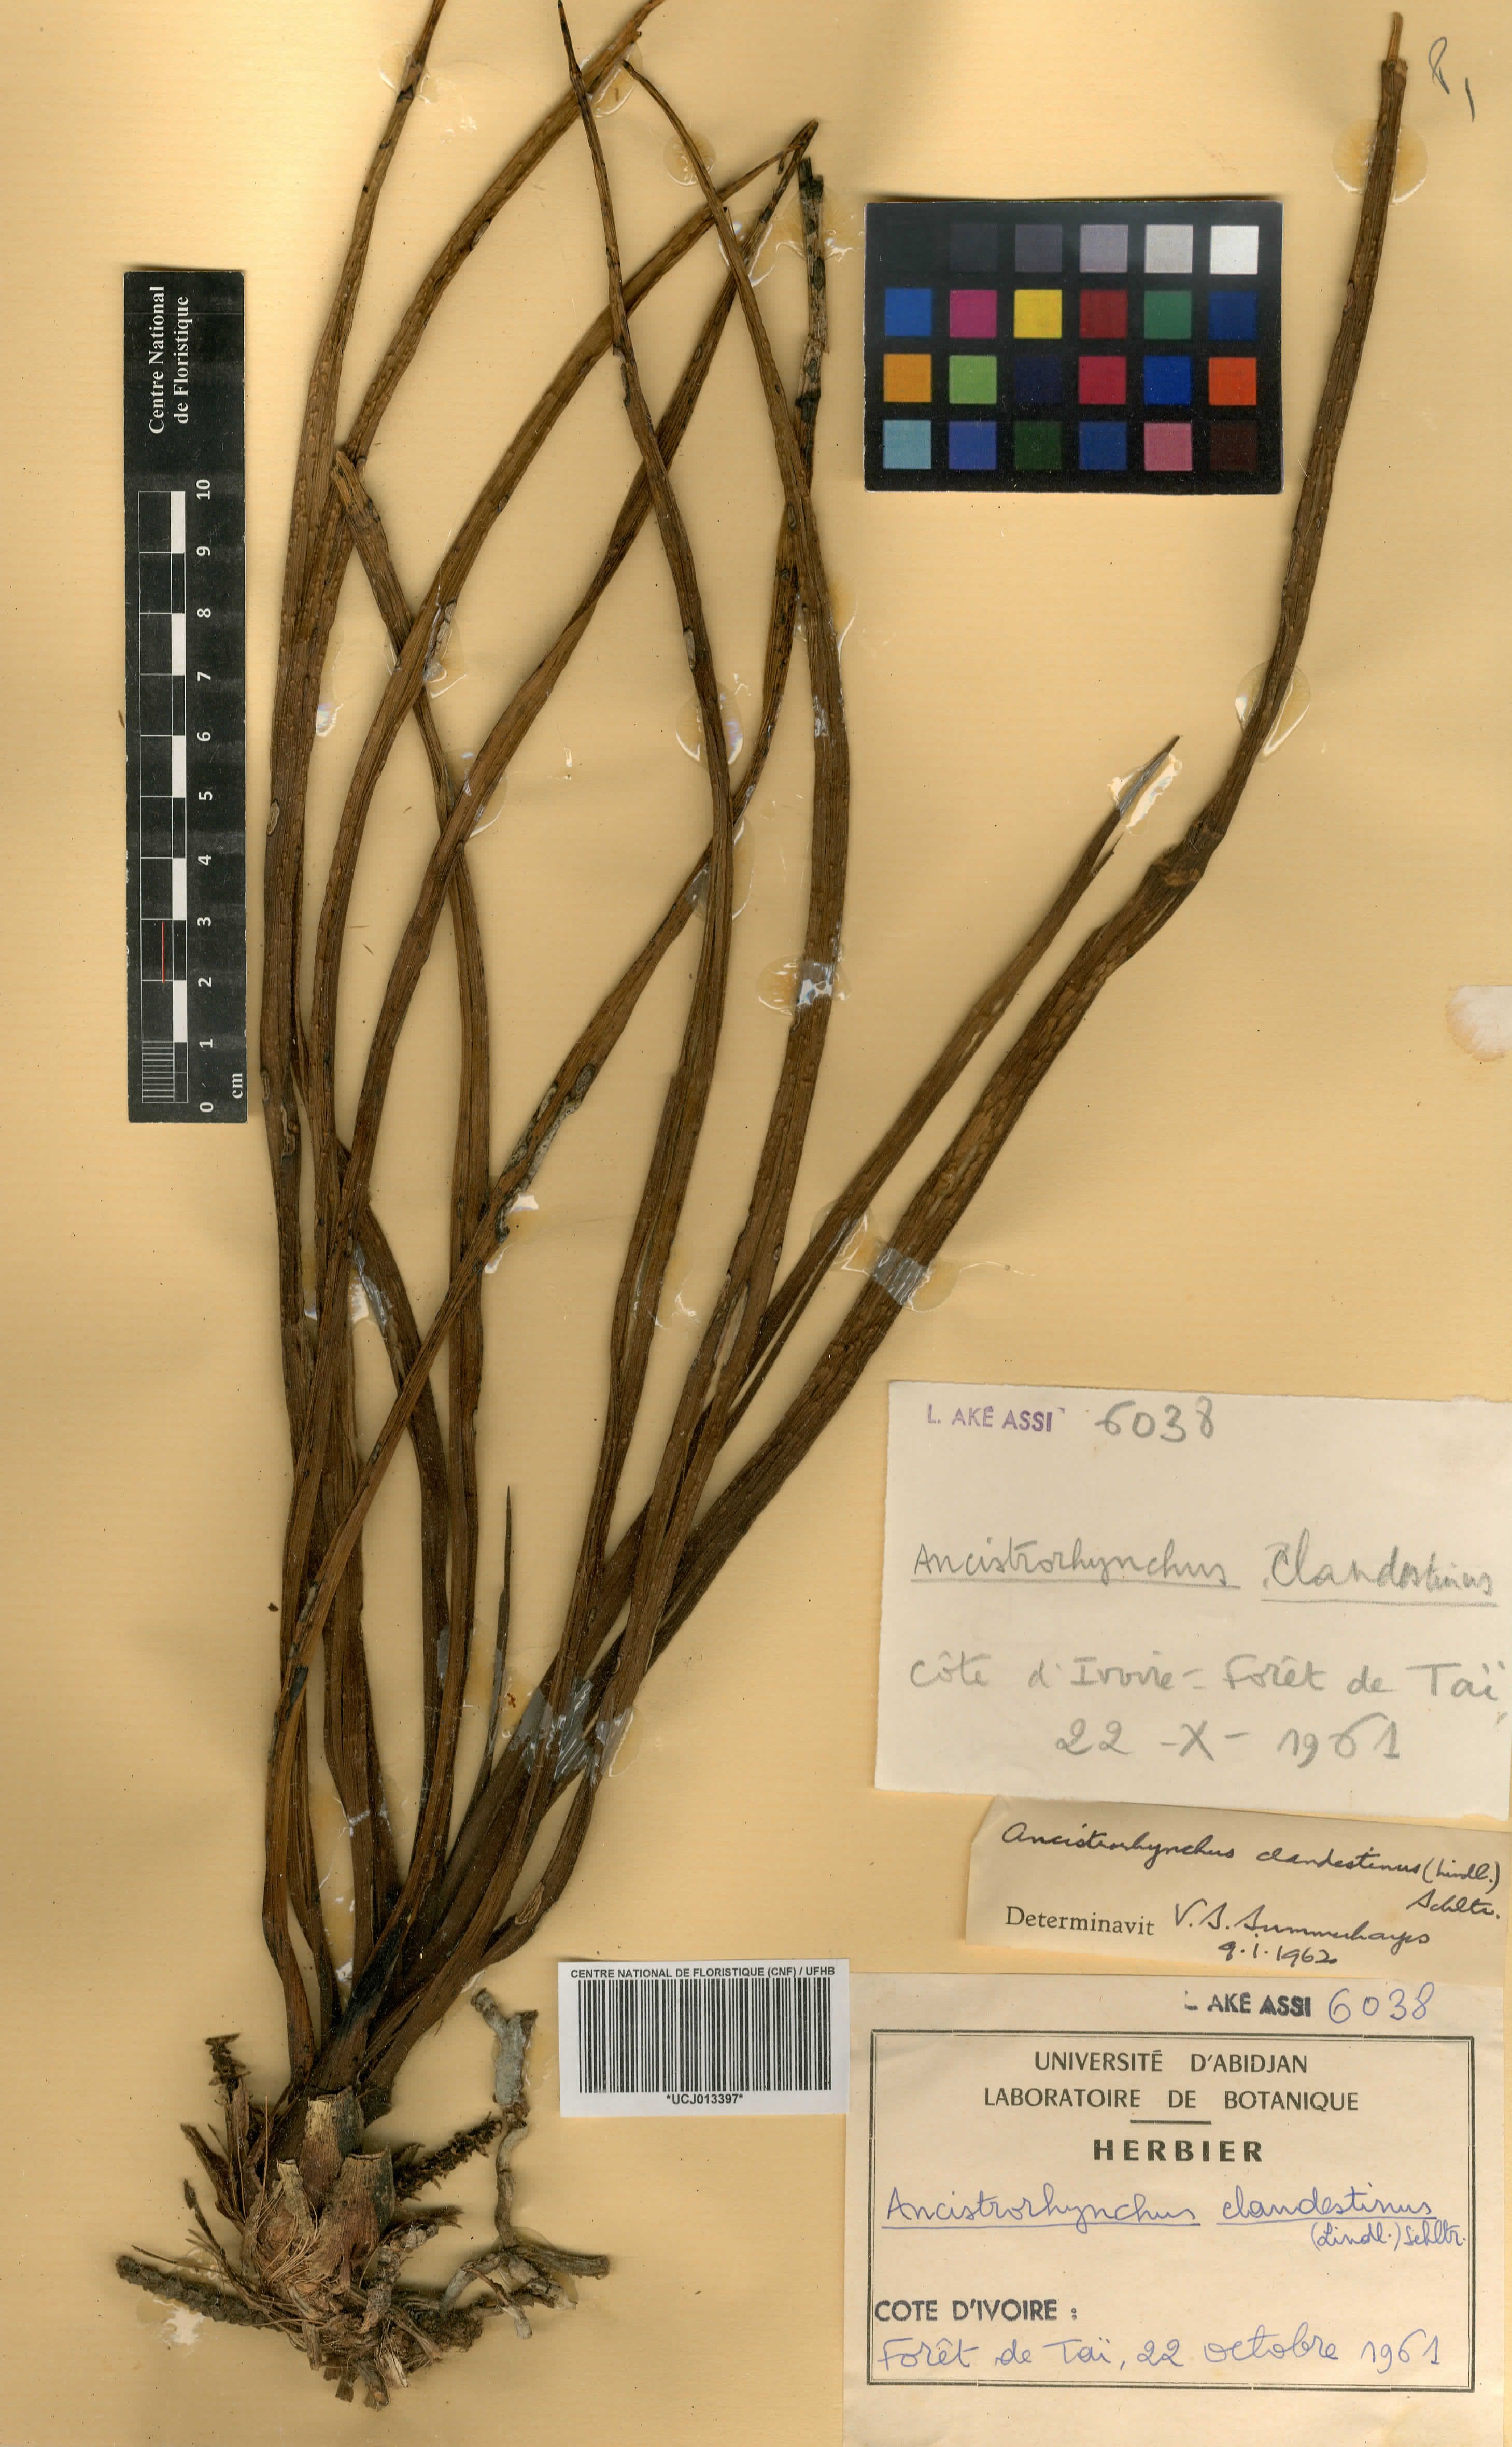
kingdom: Plantae
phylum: Tracheophyta
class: Liliopsida
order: Asparagales
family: Orchidaceae
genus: Ancistrorhynchus
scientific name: Ancistrorhynchus clandestinus
